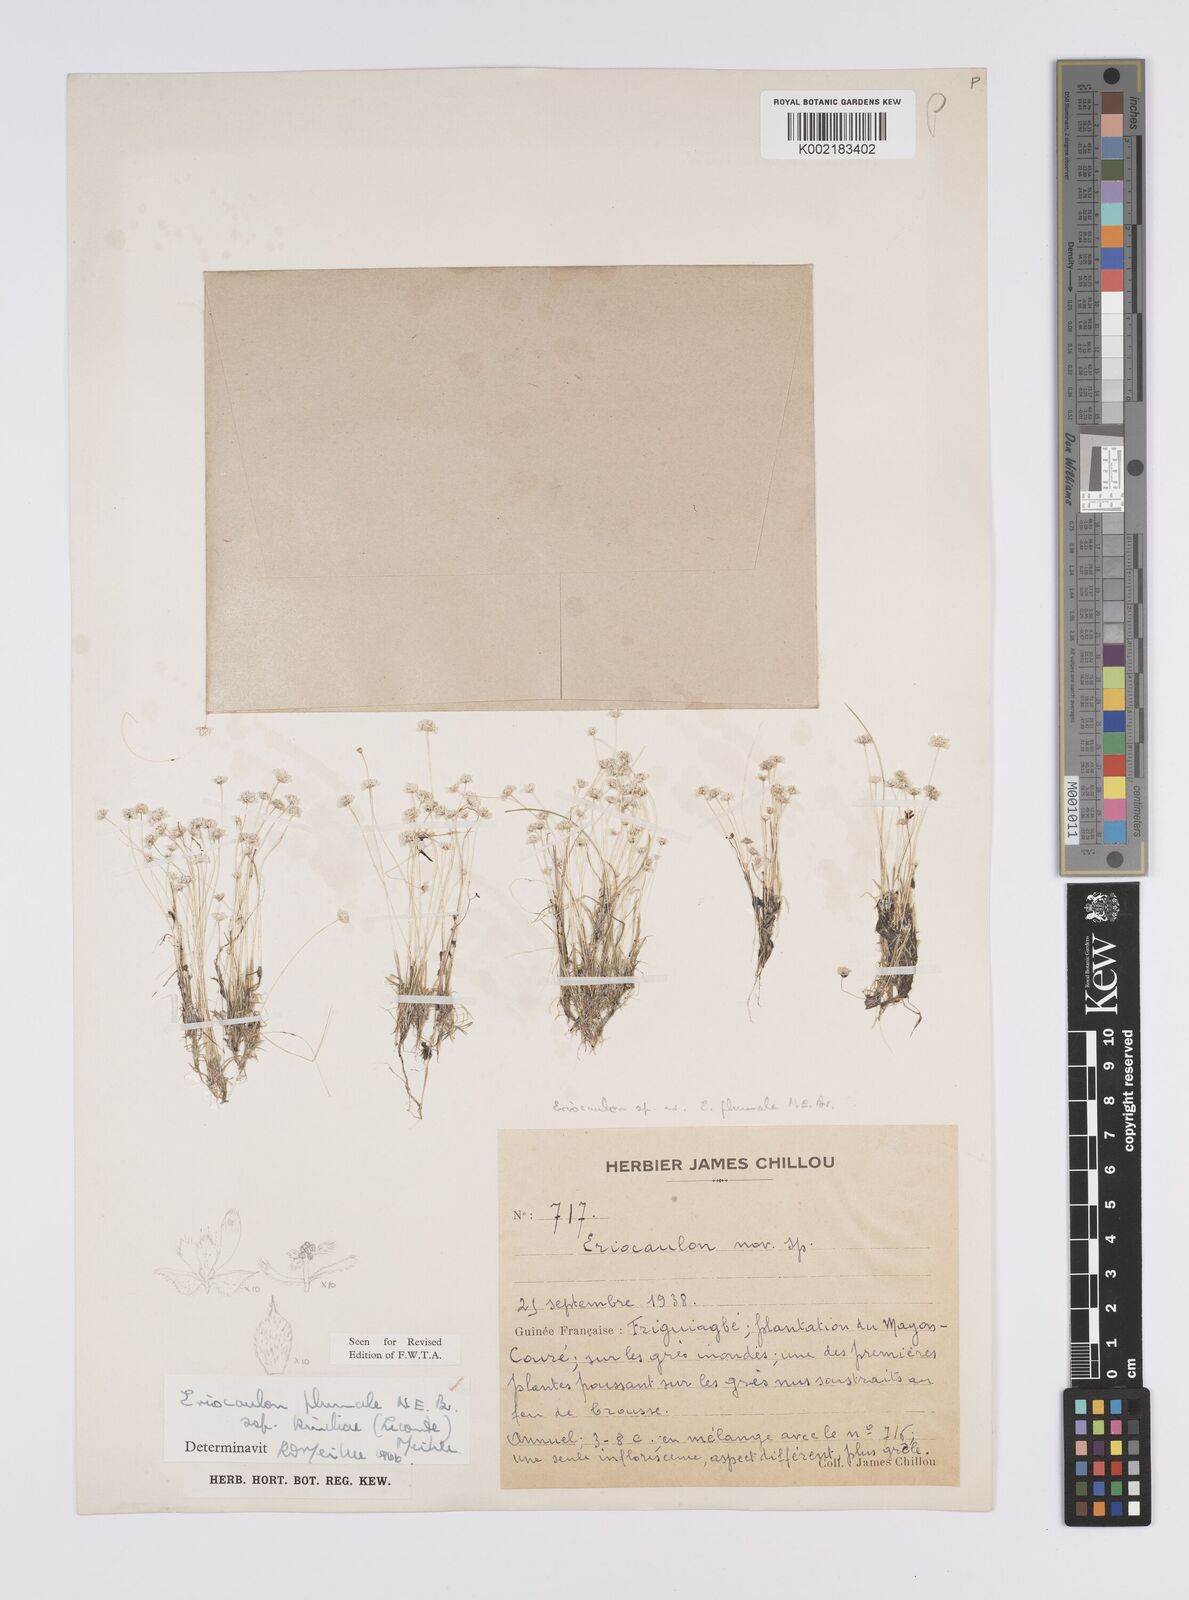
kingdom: Plantae
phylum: Tracheophyta
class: Liliopsida
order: Poales
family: Eriocaulaceae
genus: Eriocaulon
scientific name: Eriocaulon plumale
